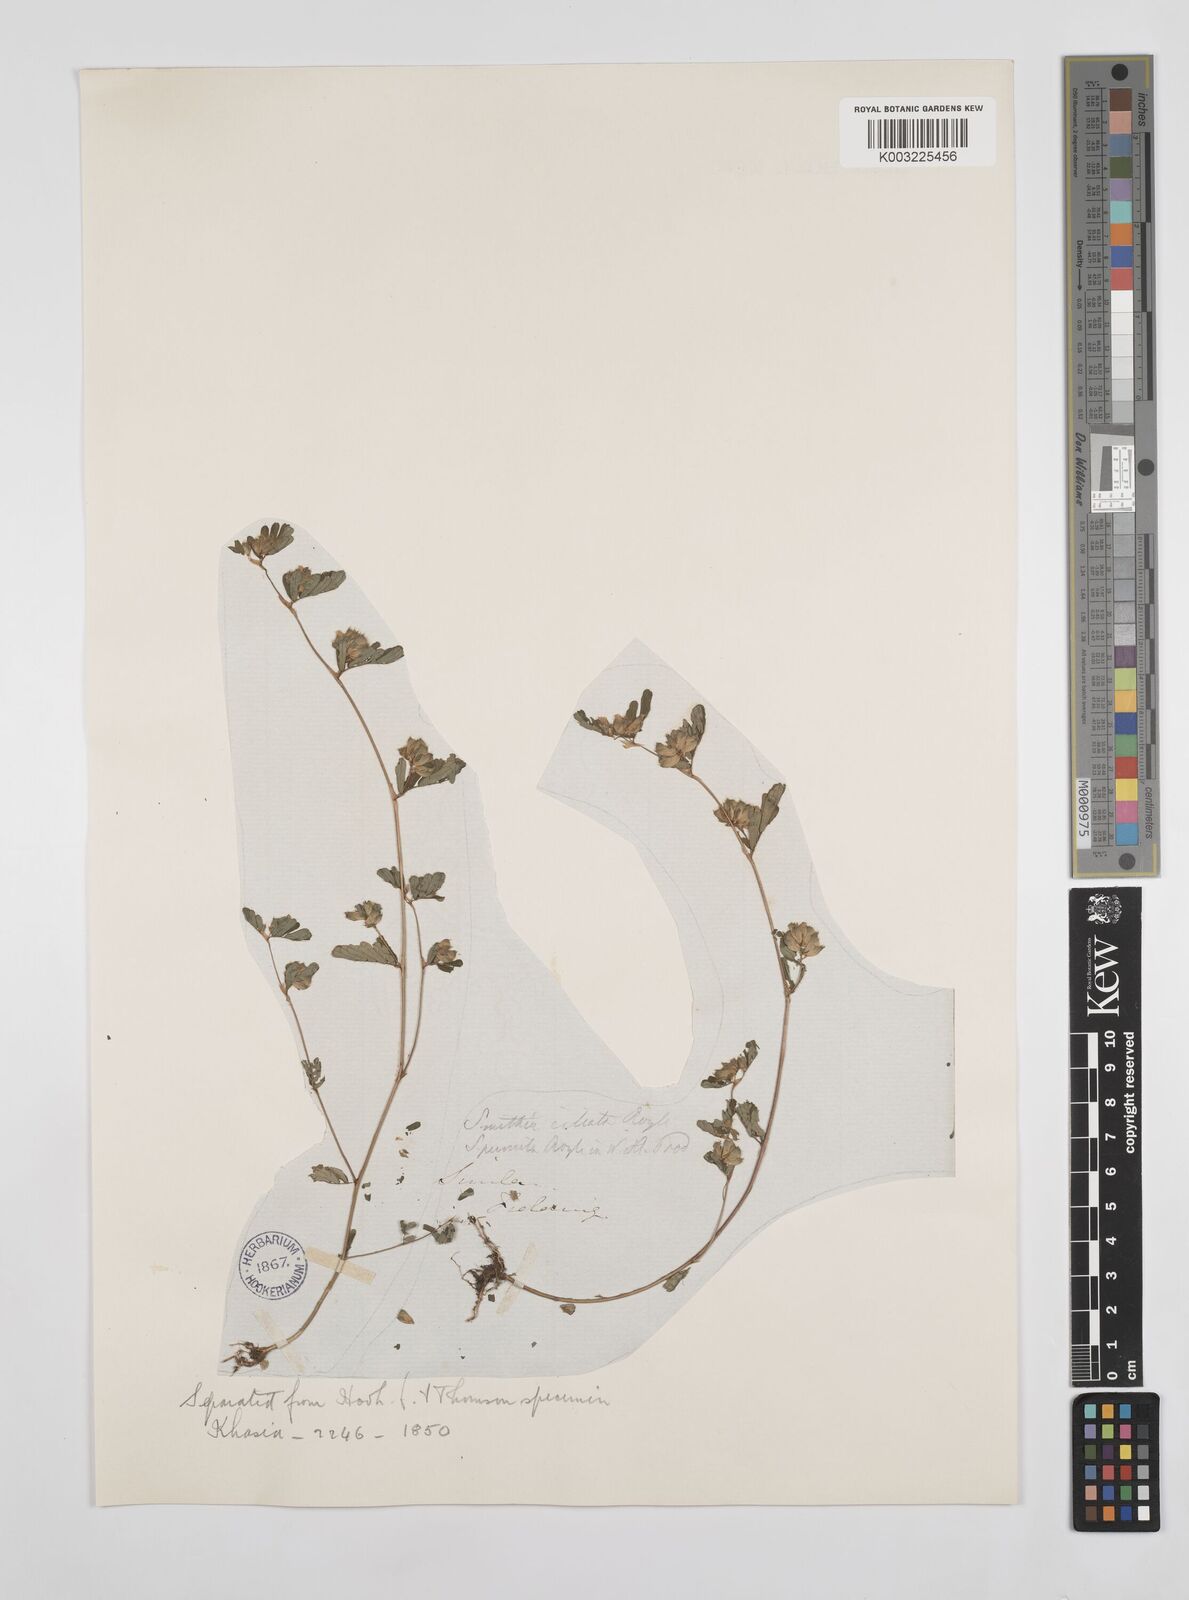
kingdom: Plantae
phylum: Tracheophyta
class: Magnoliopsida
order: Fabales
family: Fabaceae
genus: Smithia
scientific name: Smithia ciliata
